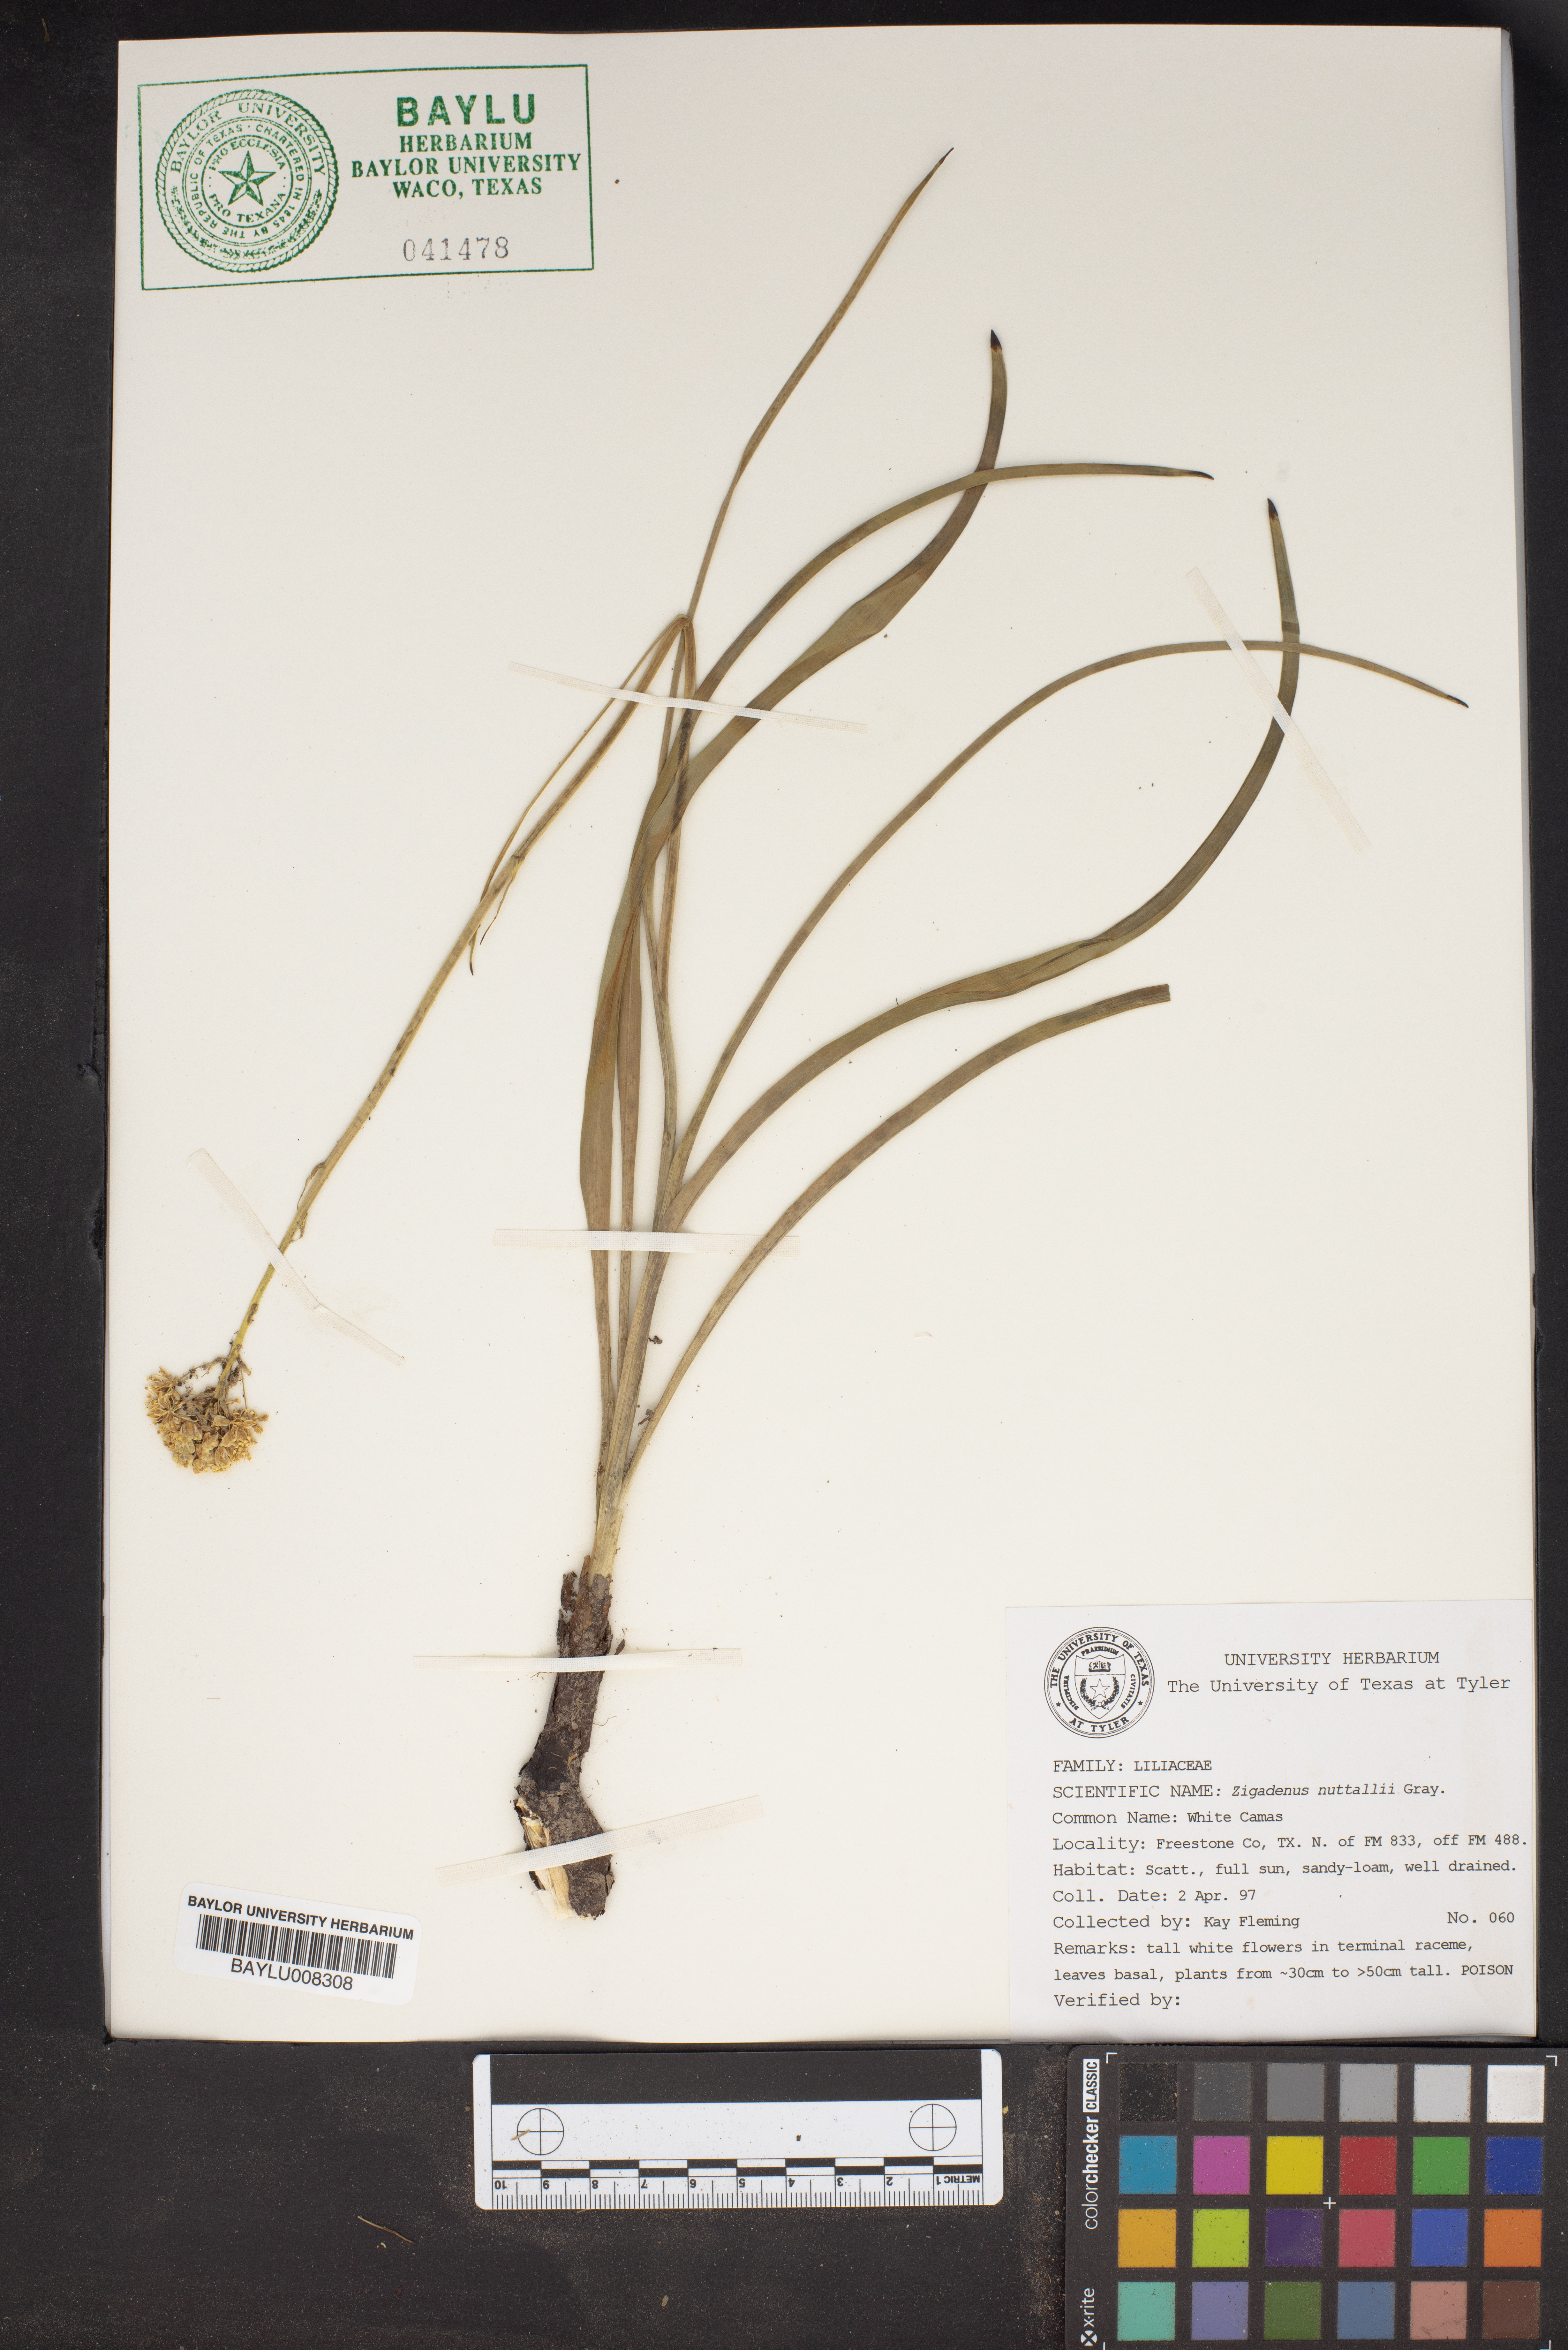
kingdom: Plantae
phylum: Tracheophyta
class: Liliopsida
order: Liliales
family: Melanthiaceae
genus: Toxicoscordion
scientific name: Toxicoscordion nuttallii
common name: Poison sego
